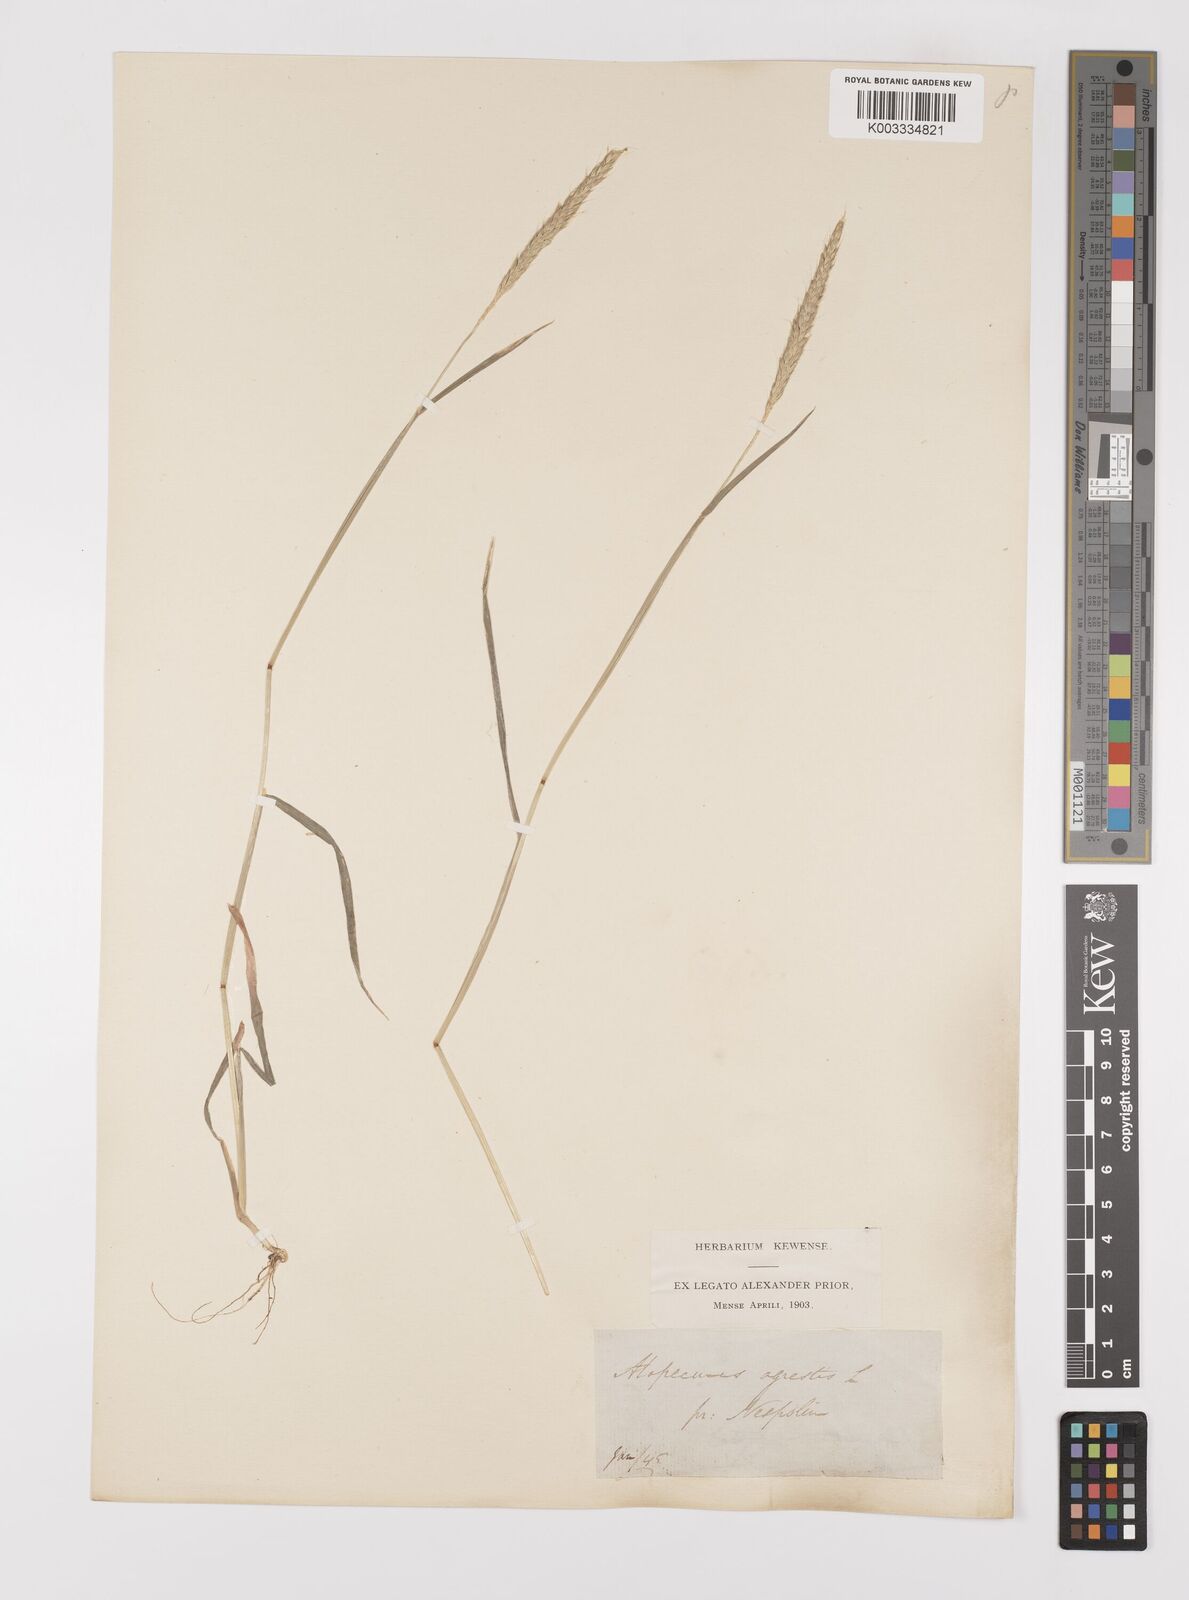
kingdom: Plantae
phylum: Tracheophyta
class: Liliopsida
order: Poales
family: Poaceae
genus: Alopecurus
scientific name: Alopecurus myosuroides
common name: Black-grass
